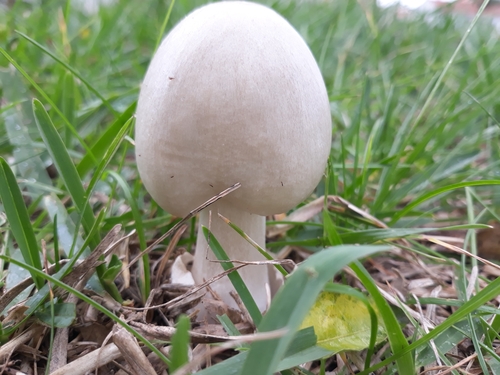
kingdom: Fungi
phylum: Basidiomycota
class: Agaricomycetes
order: Agaricales
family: Pluteaceae
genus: Volvopluteus
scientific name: Volvopluteus gloiocephalus
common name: Stubble rosegill
